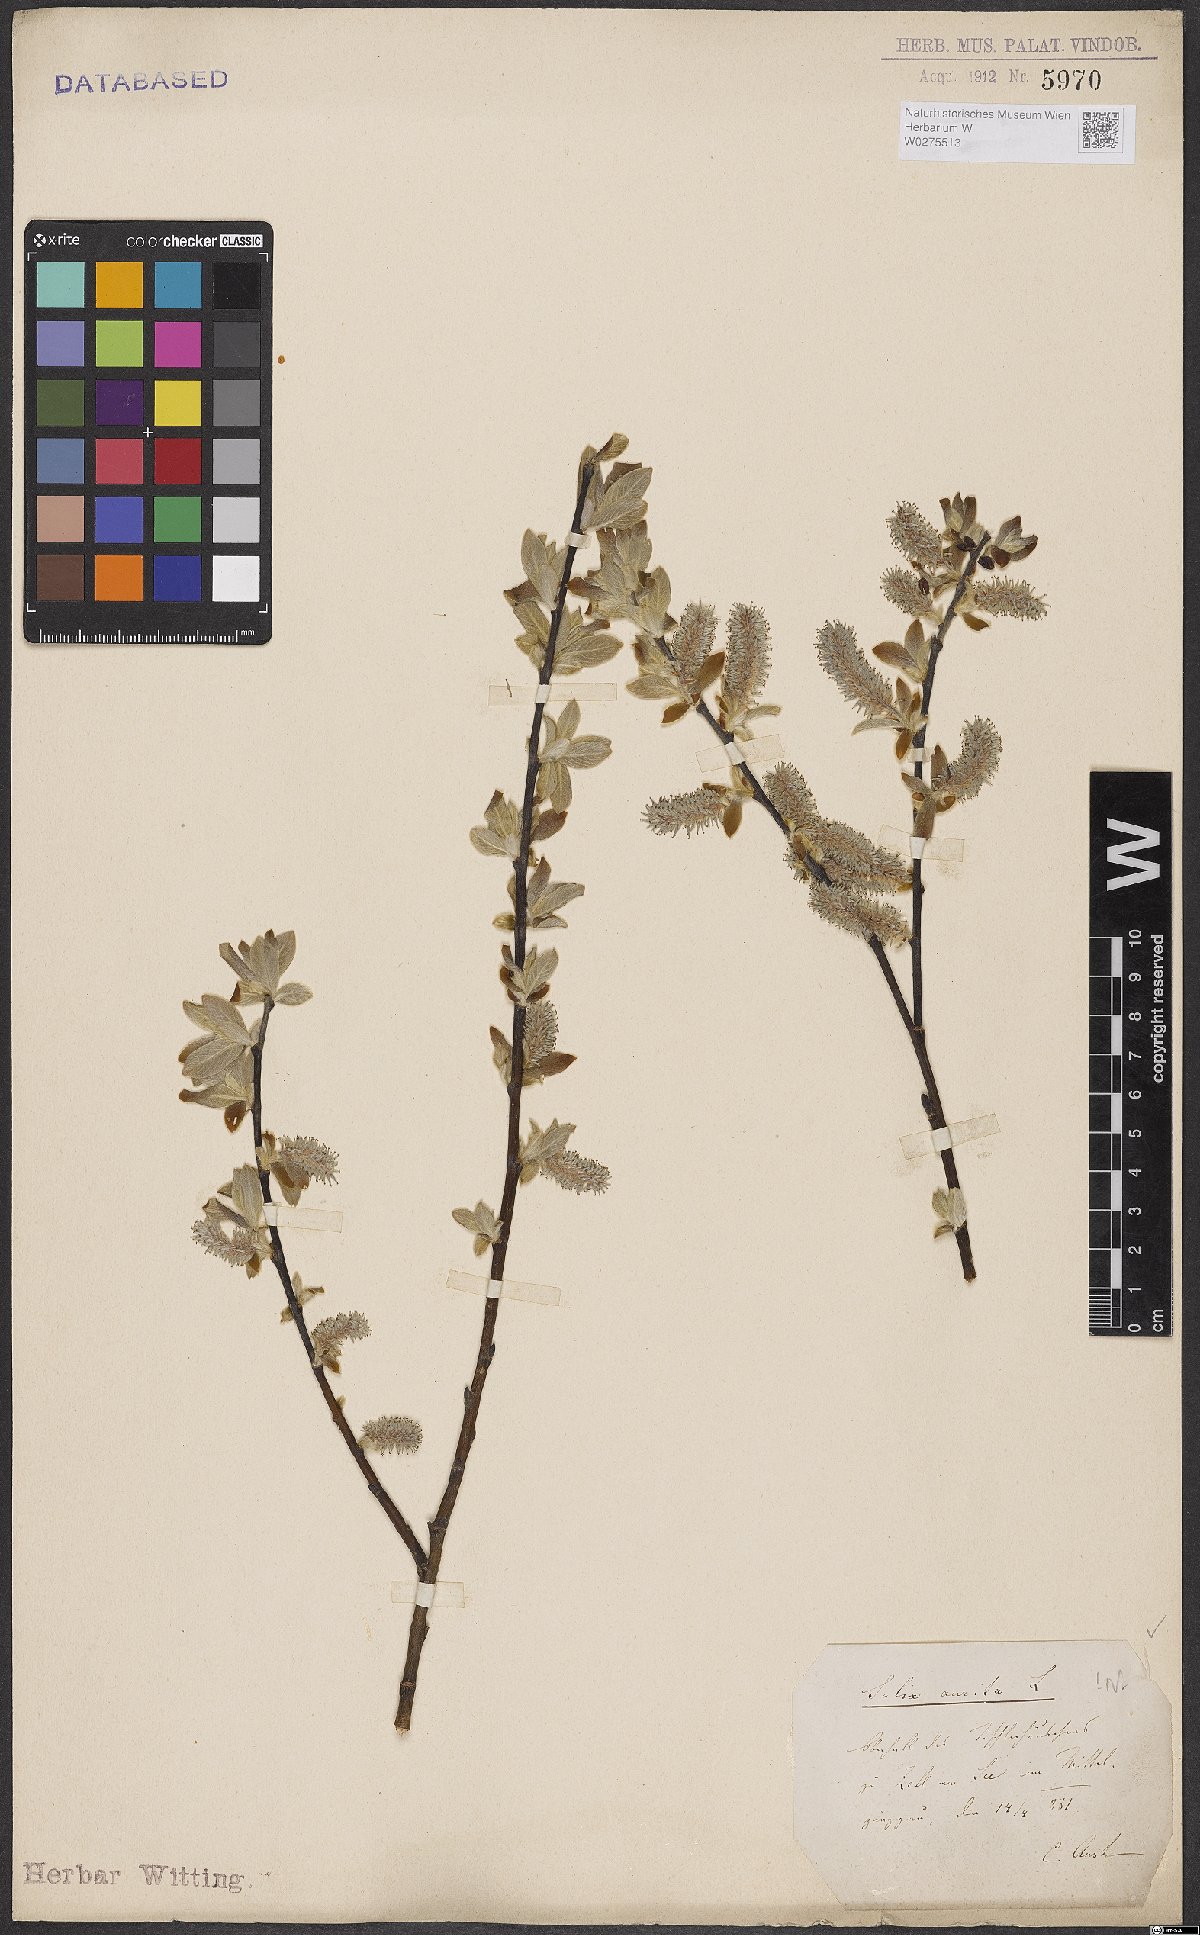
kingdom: Plantae
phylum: Tracheophyta
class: Magnoliopsida
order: Malpighiales
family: Salicaceae
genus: Salix
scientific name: Salix aurita
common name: Eared willow
